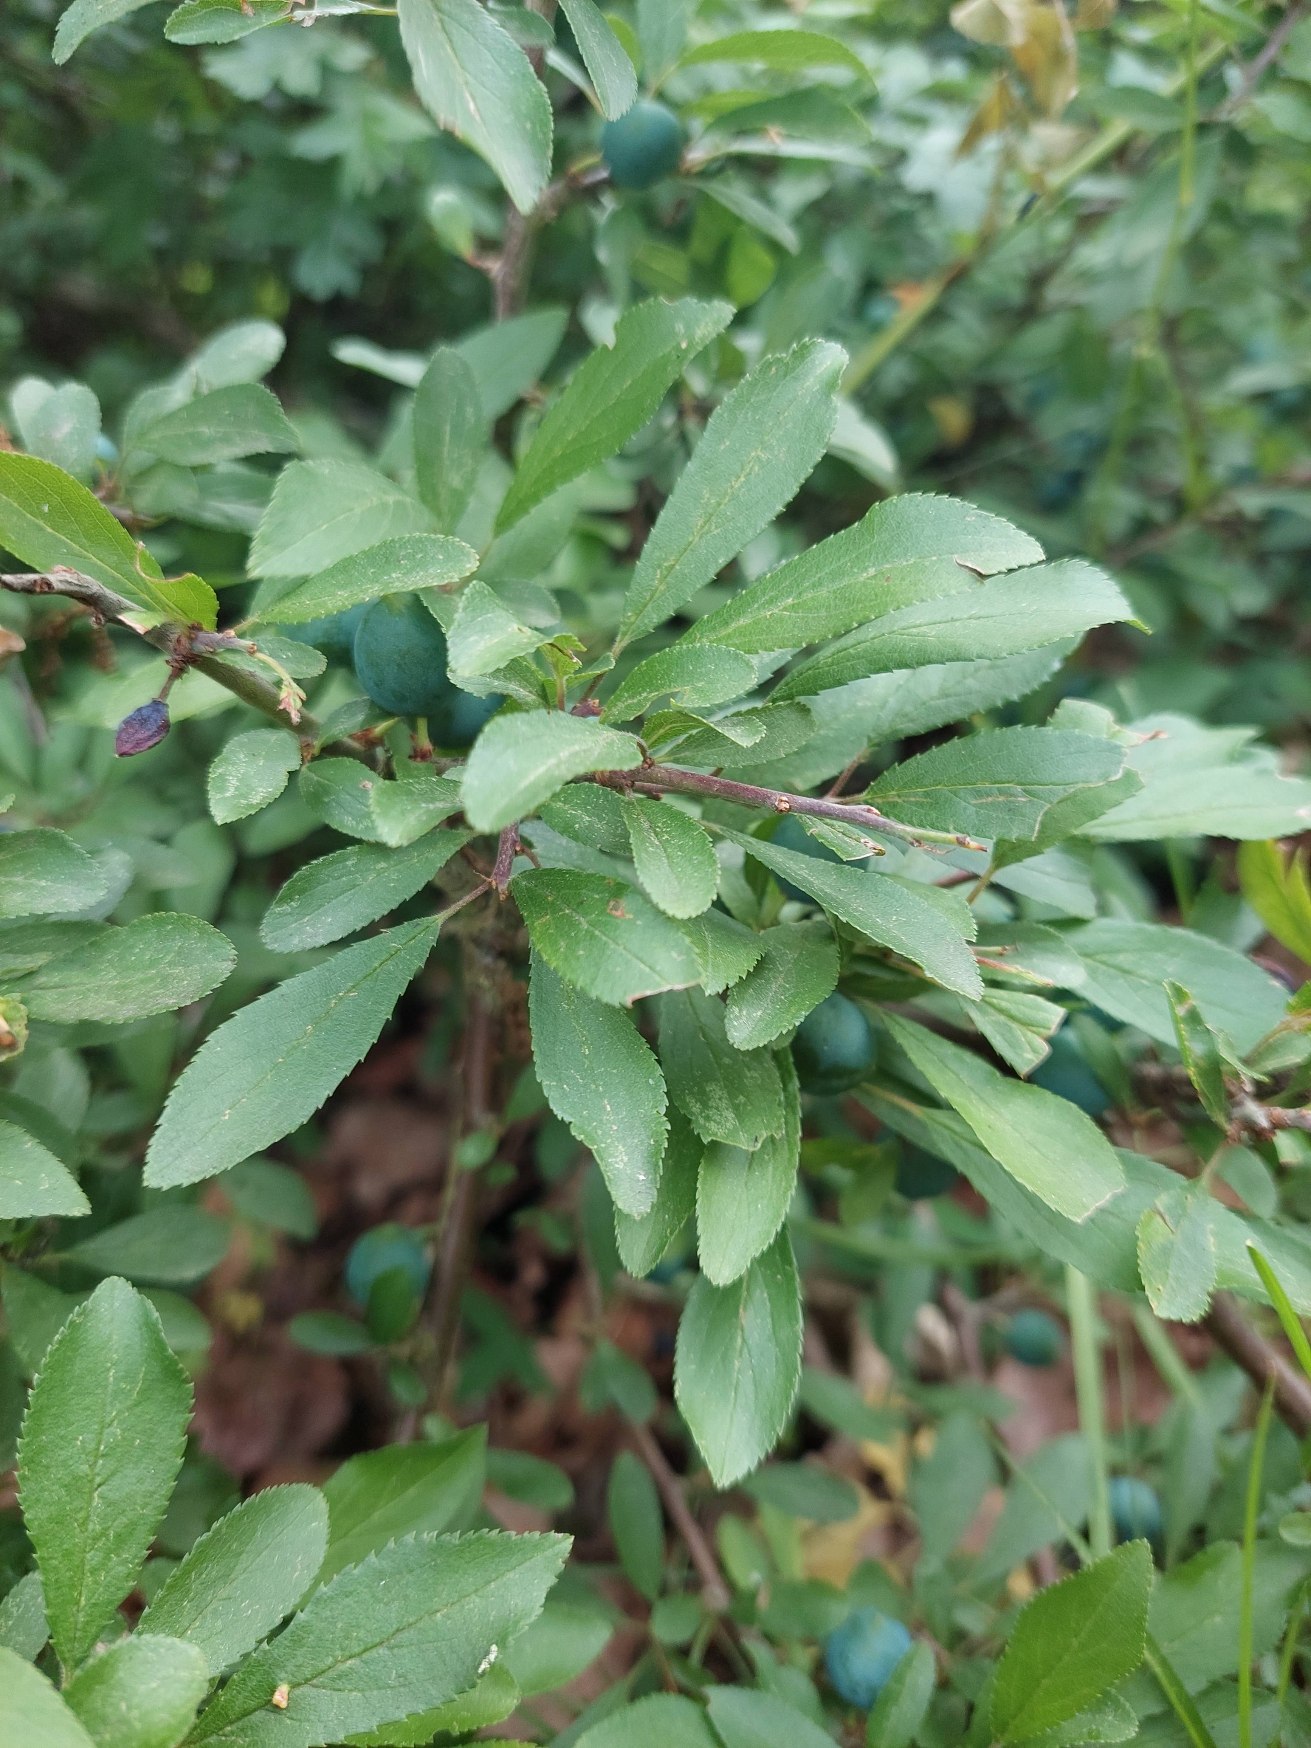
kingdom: Plantae
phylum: Tracheophyta
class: Magnoliopsida
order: Rosales
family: Rosaceae
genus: Prunus
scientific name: Prunus spinosa
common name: Slåen
